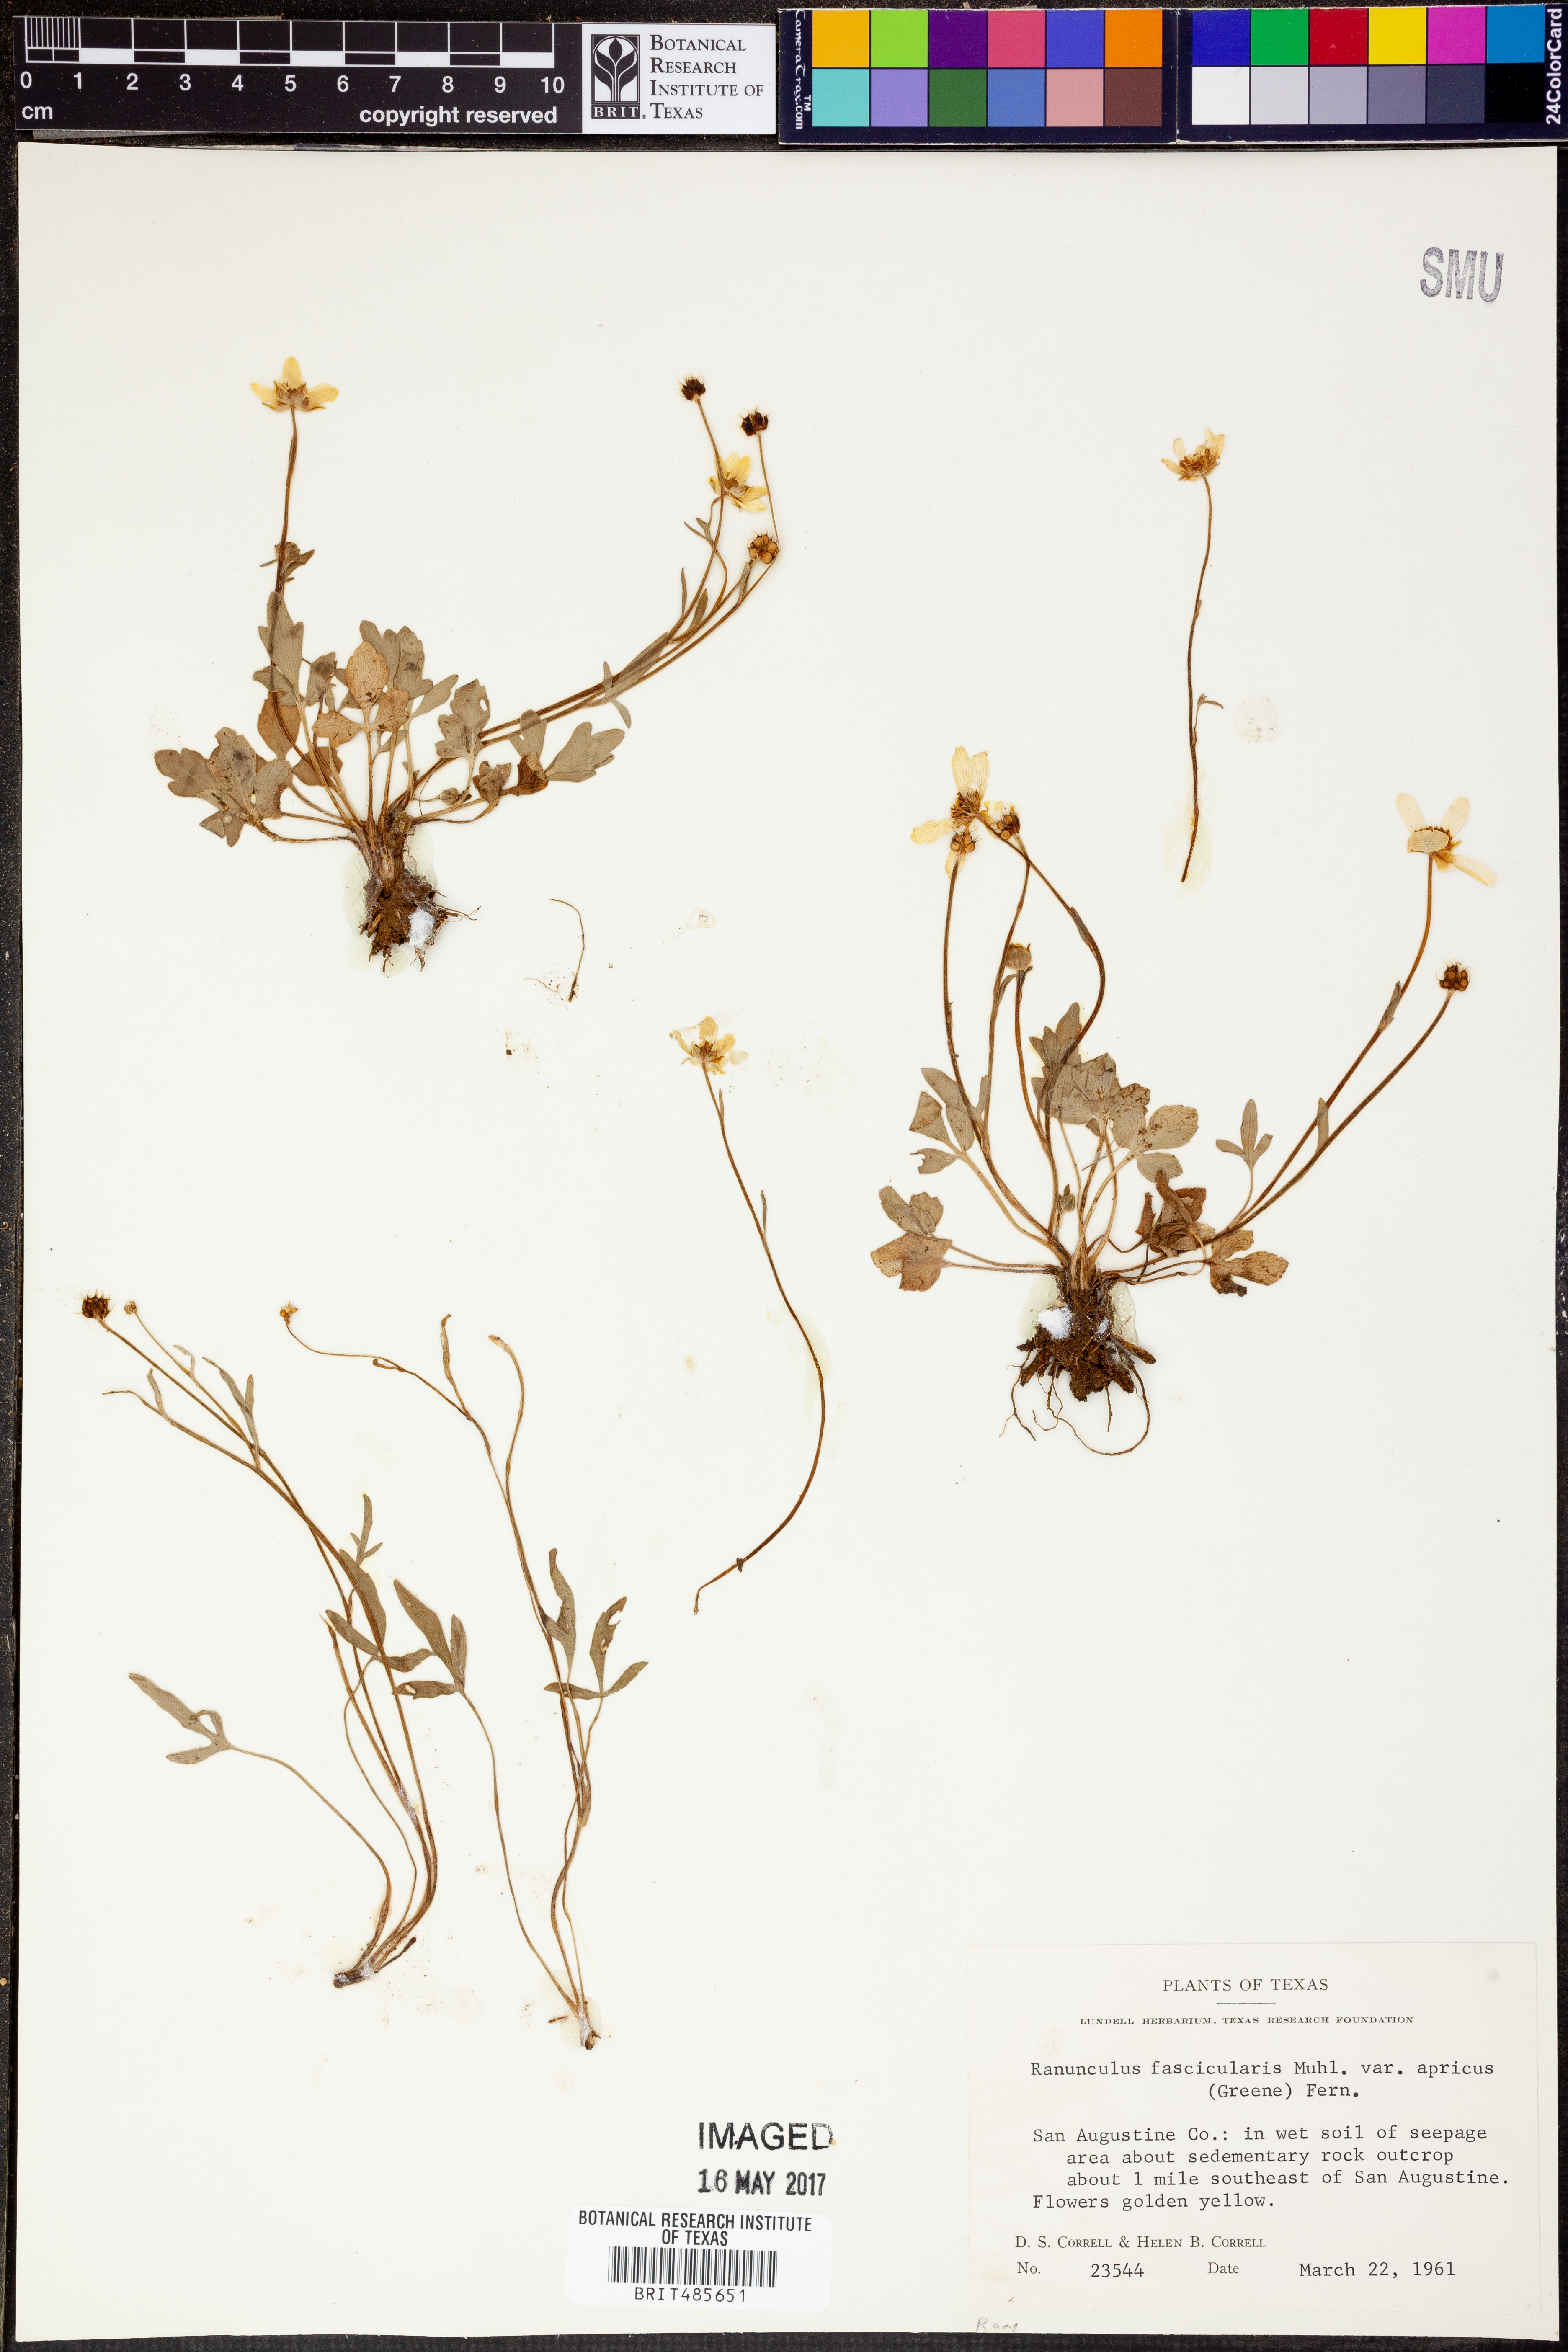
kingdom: Plantae
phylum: Tracheophyta
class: Magnoliopsida
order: Ranunculales
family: Ranunculaceae
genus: Ranunculus
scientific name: Ranunculus fascicularis
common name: Early buttercup
